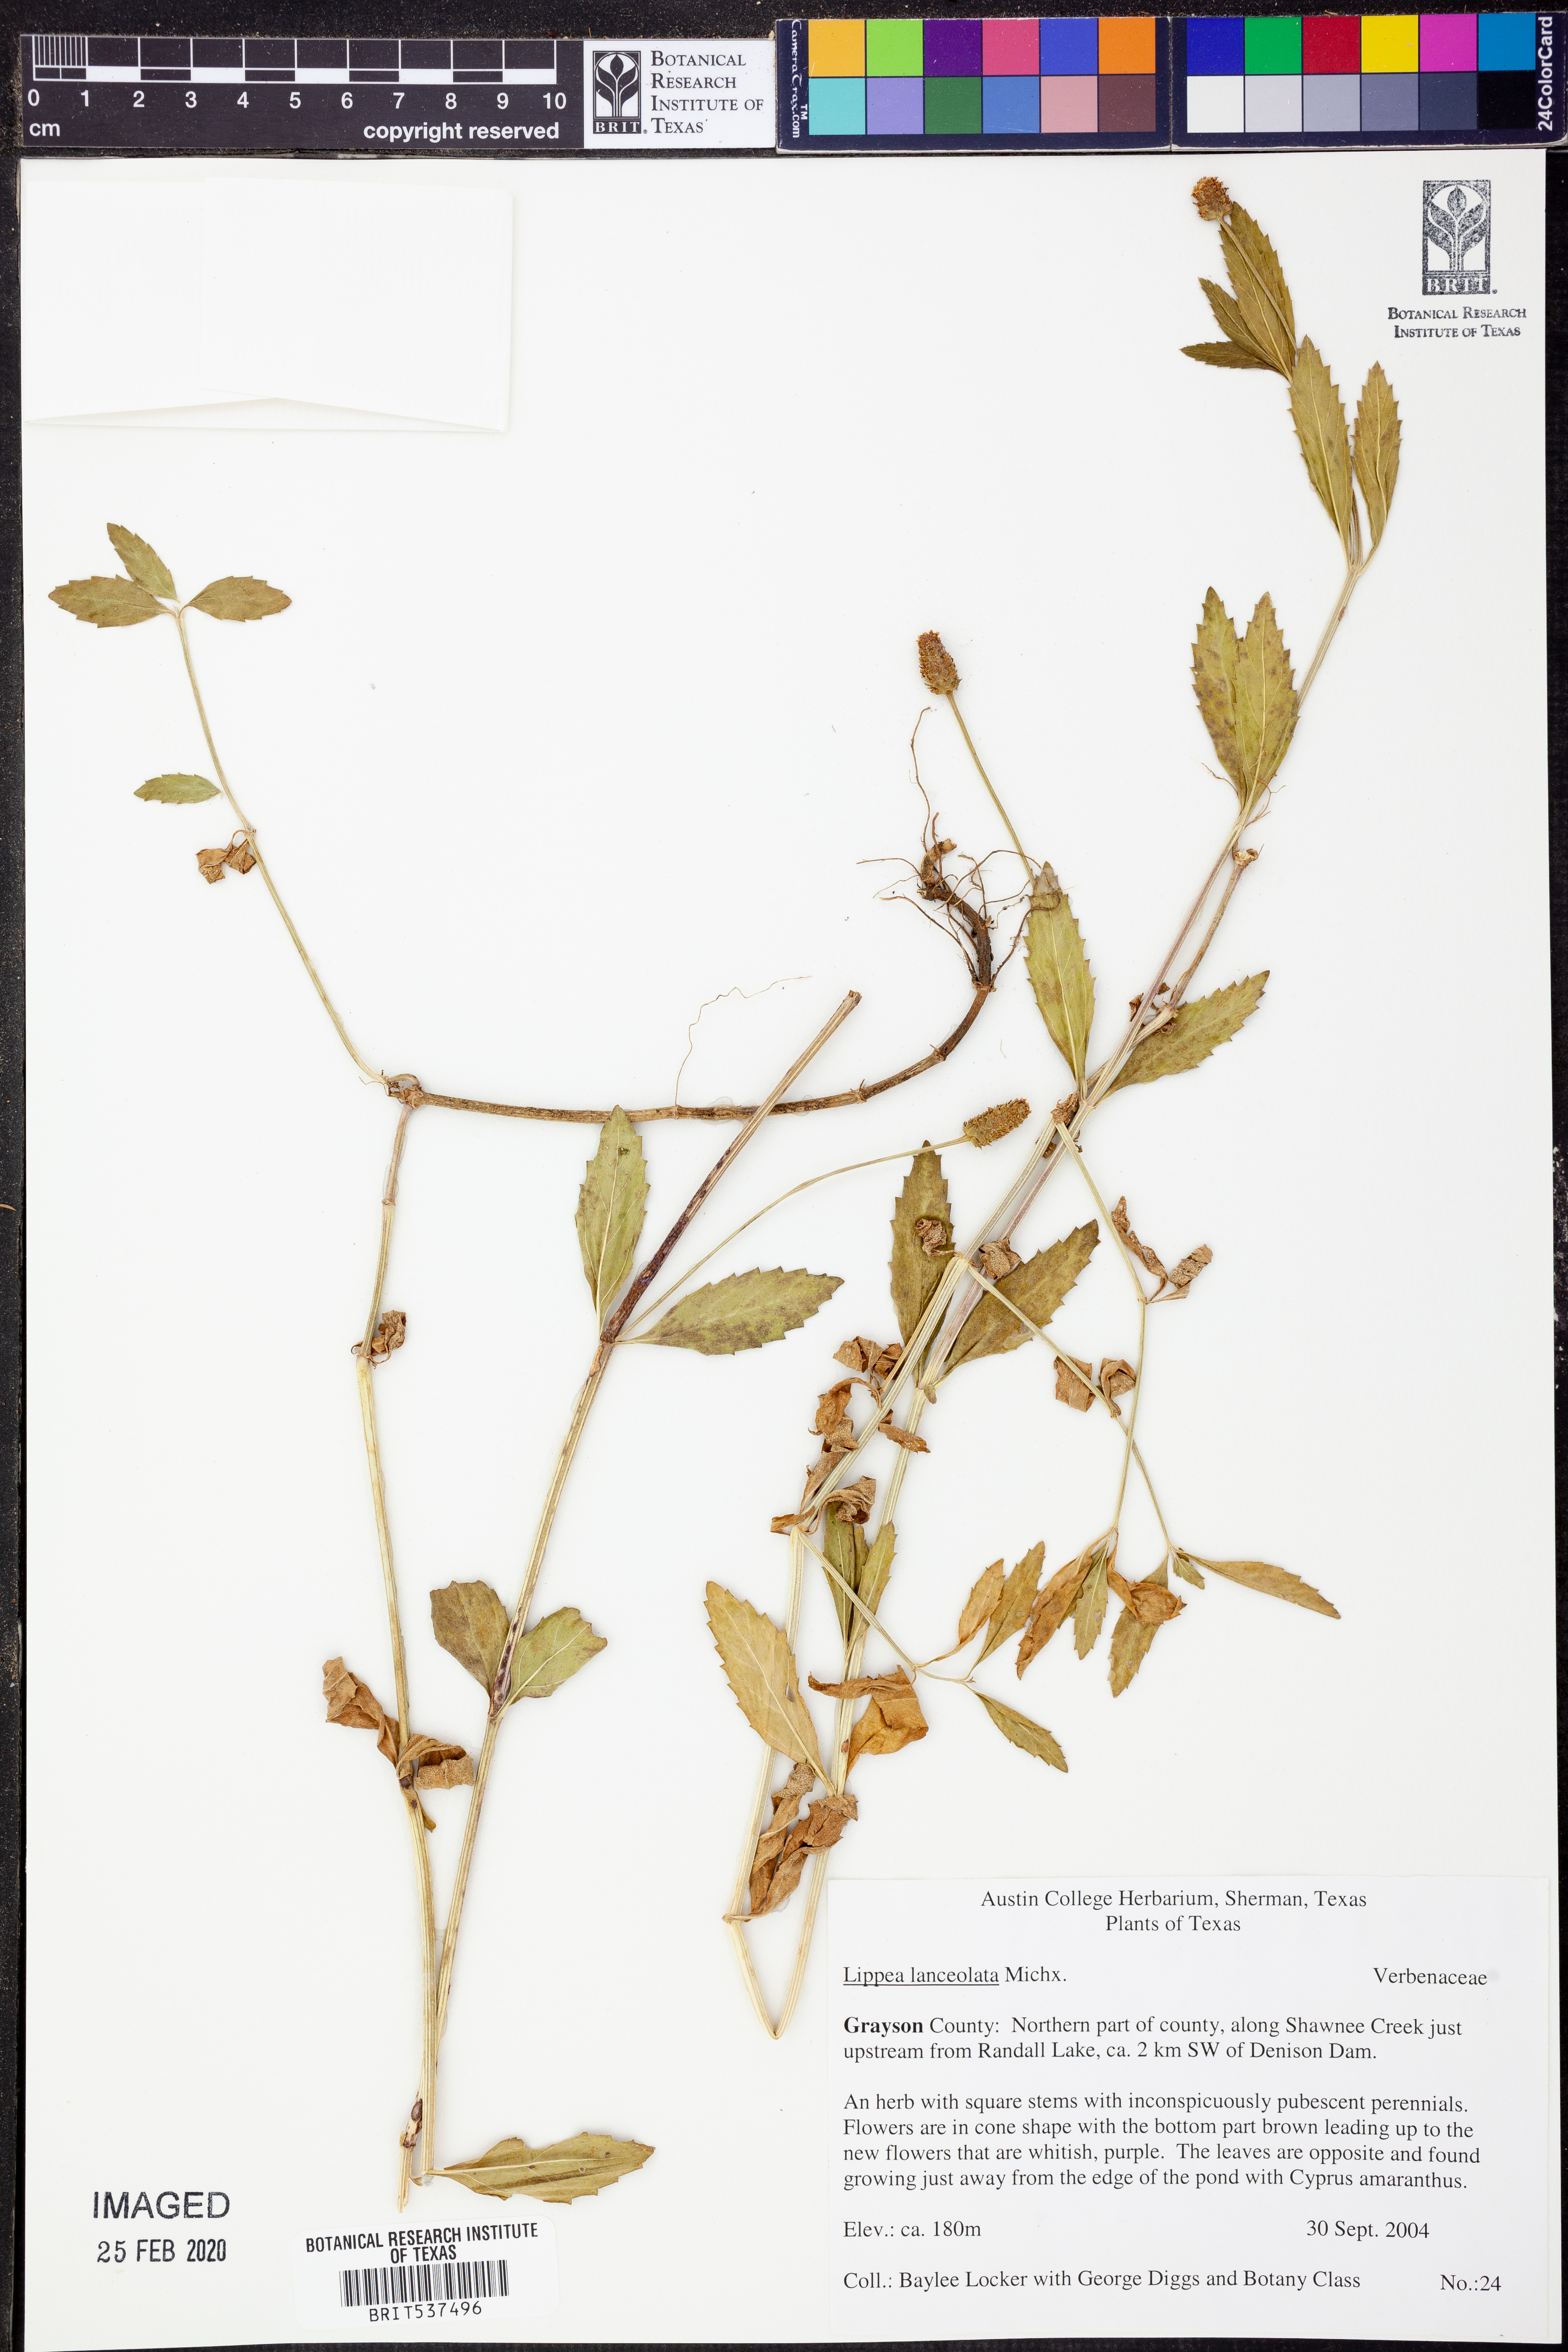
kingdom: Plantae
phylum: Tracheophyta
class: Magnoliopsida
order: Lamiales
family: Verbenaceae
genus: Phyla
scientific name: Phyla lanceolata
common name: Northern fogfruit
